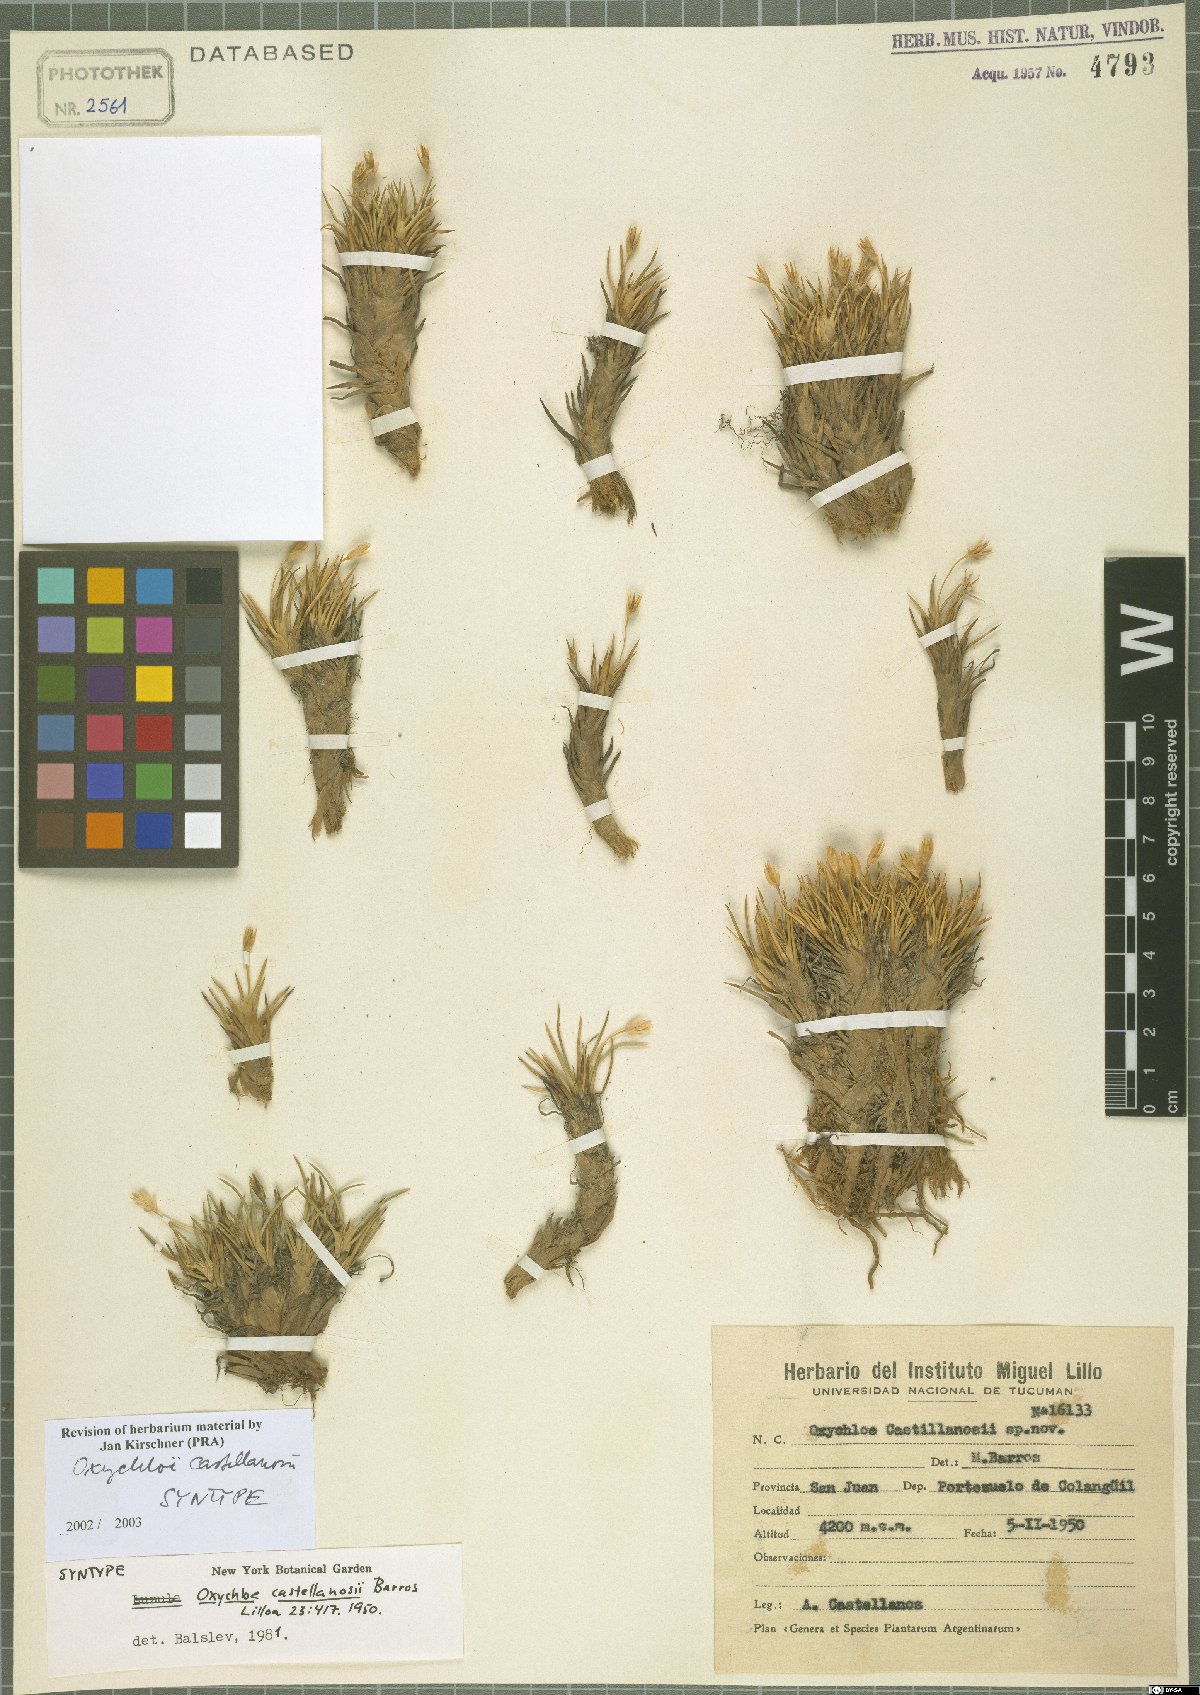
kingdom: Plantae
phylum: Tracheophyta
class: Liliopsida
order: Poales
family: Juncaceae
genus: Oxychloe
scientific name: Oxychloe castellanosii
